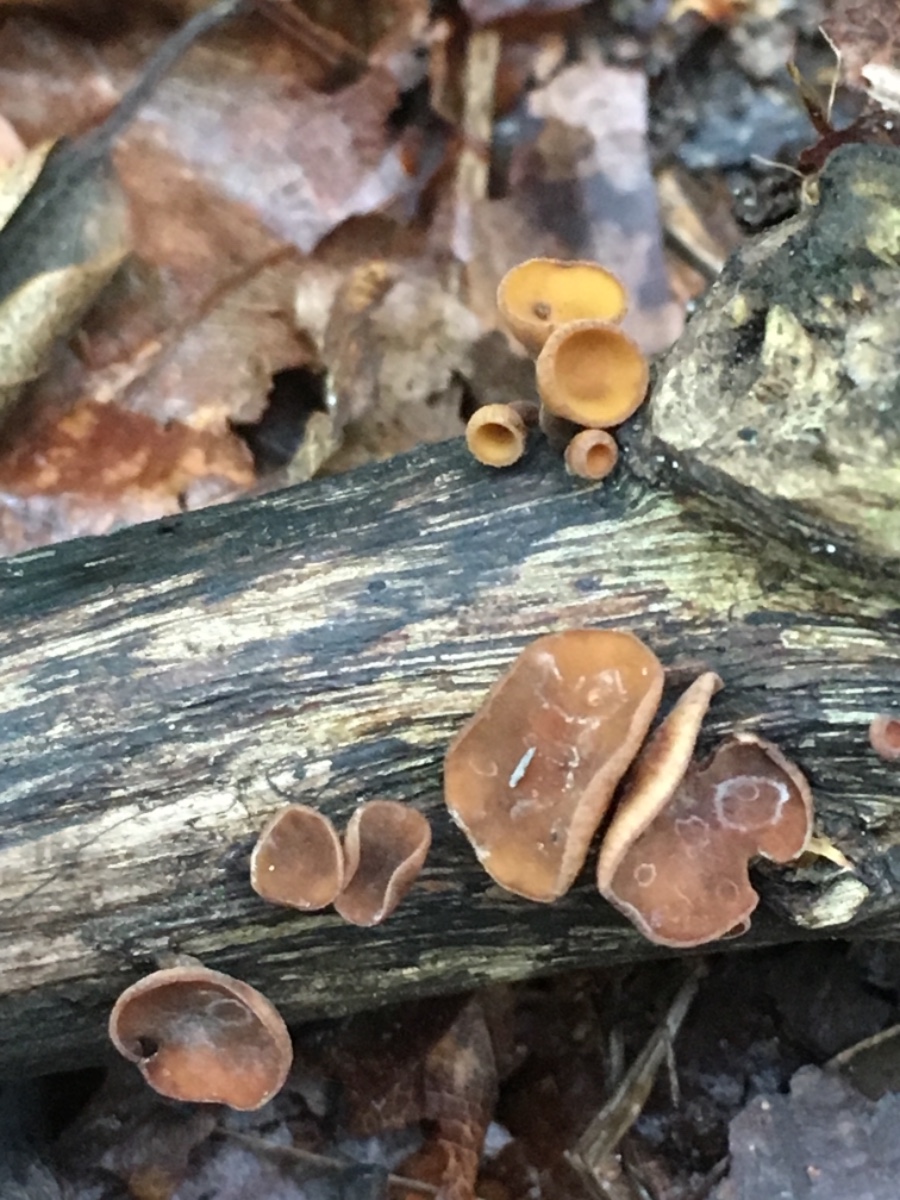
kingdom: Fungi
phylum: Ascomycota
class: Leotiomycetes
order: Helotiales
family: Rutstroemiaceae
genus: Rutstroemia
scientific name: Rutstroemia firma
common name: gren-brunskive
